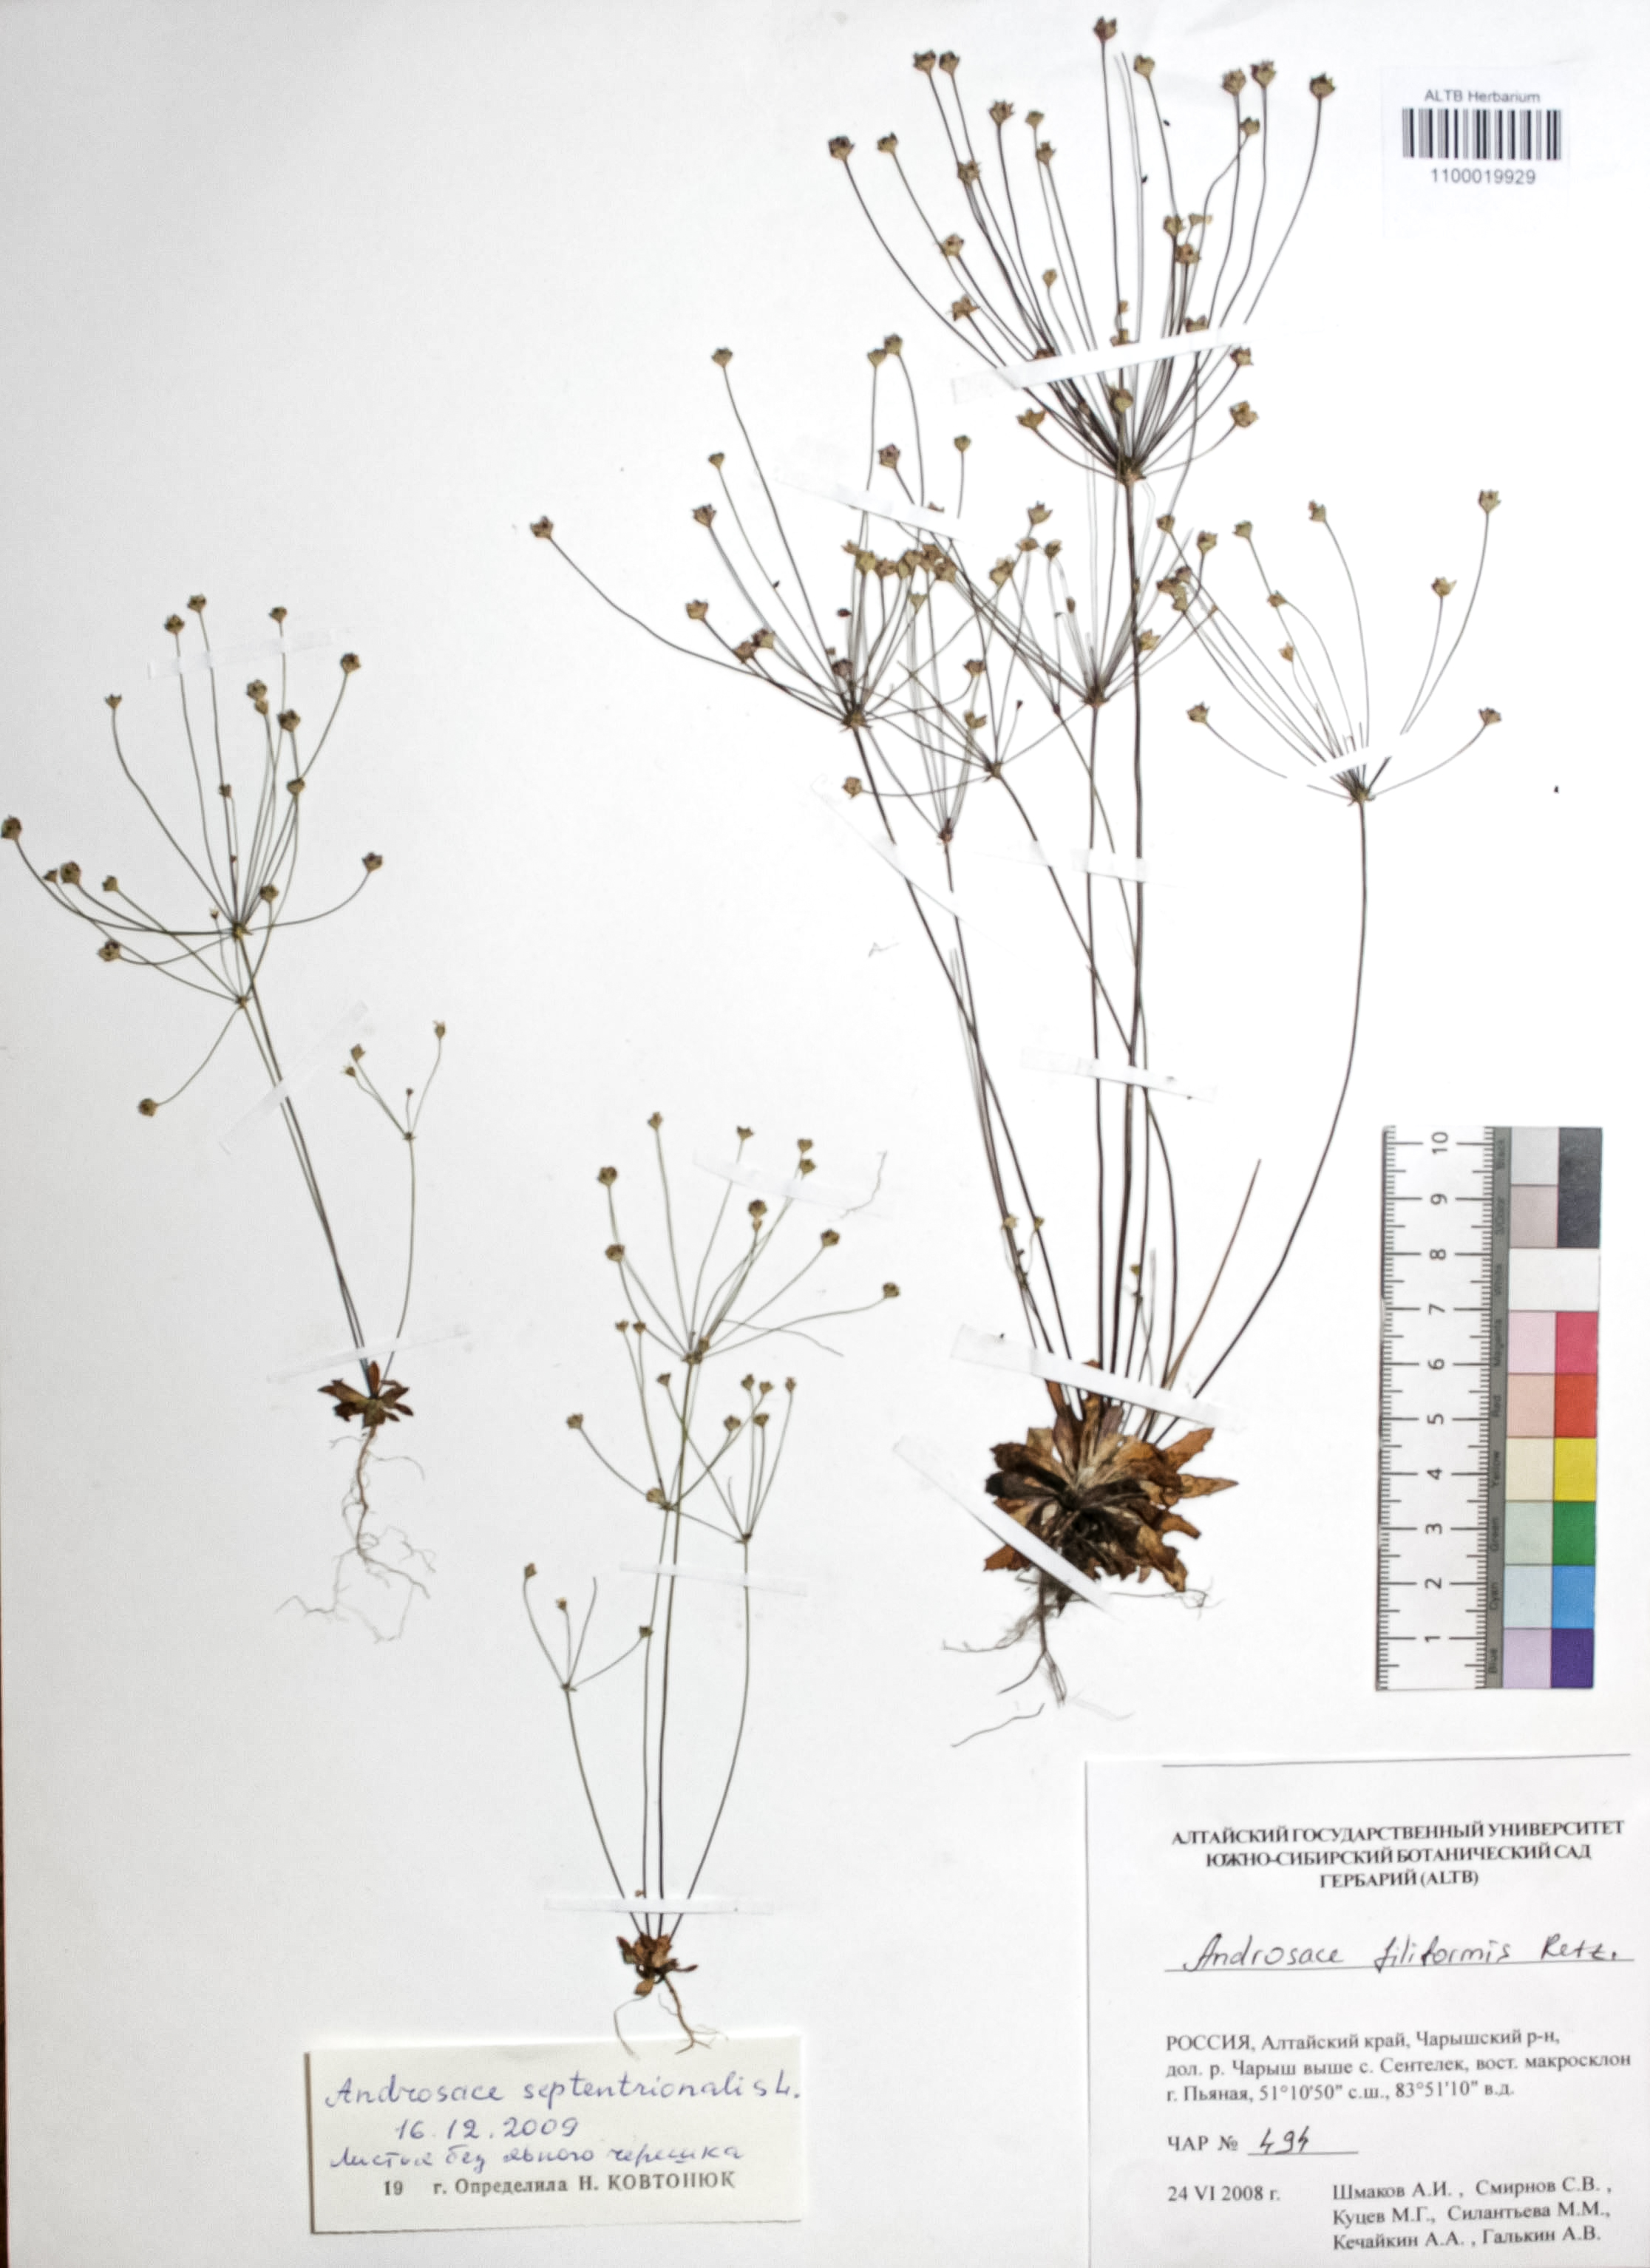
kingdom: Plantae
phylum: Tracheophyta
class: Magnoliopsida
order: Ericales
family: Primulaceae
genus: Androsace
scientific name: Androsace septentrionalis
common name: Hairy northern fairy-candelabra
